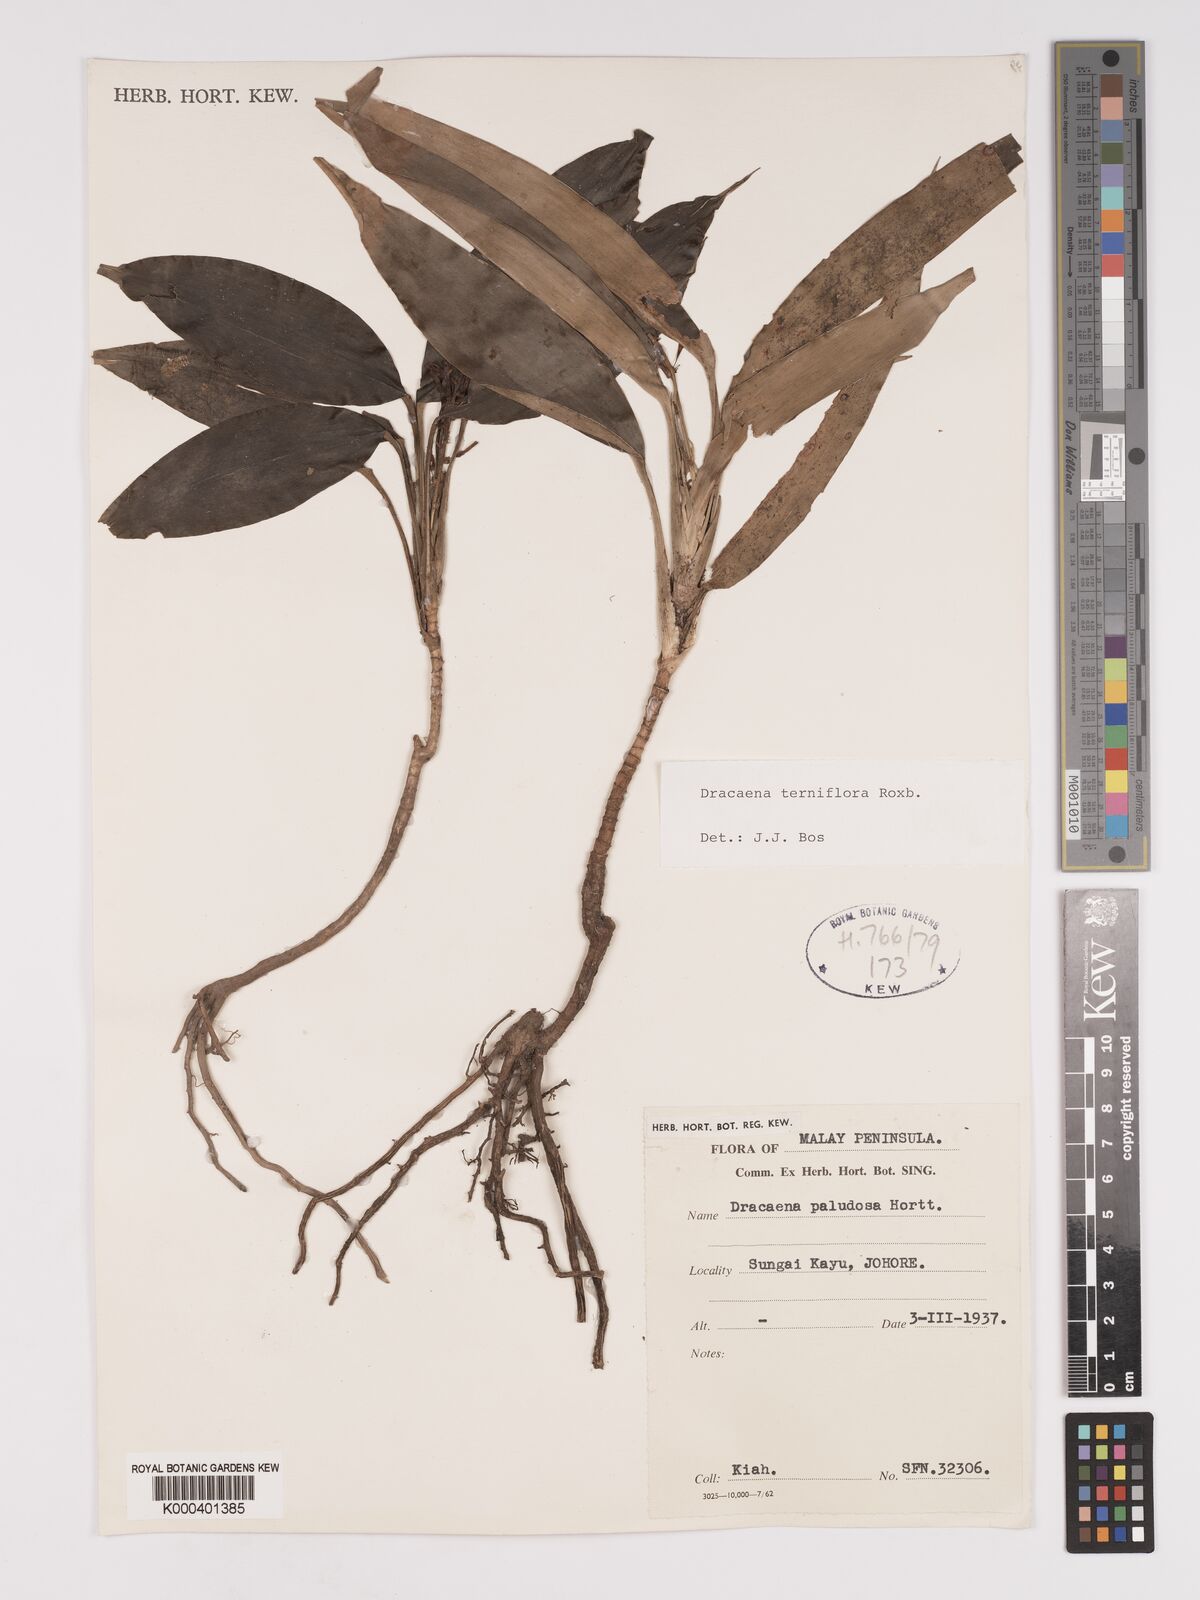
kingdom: Plantae
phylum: Tracheophyta
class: Liliopsida
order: Asparagales
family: Asparagaceae
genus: Dracaena
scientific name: Dracaena terniflora
